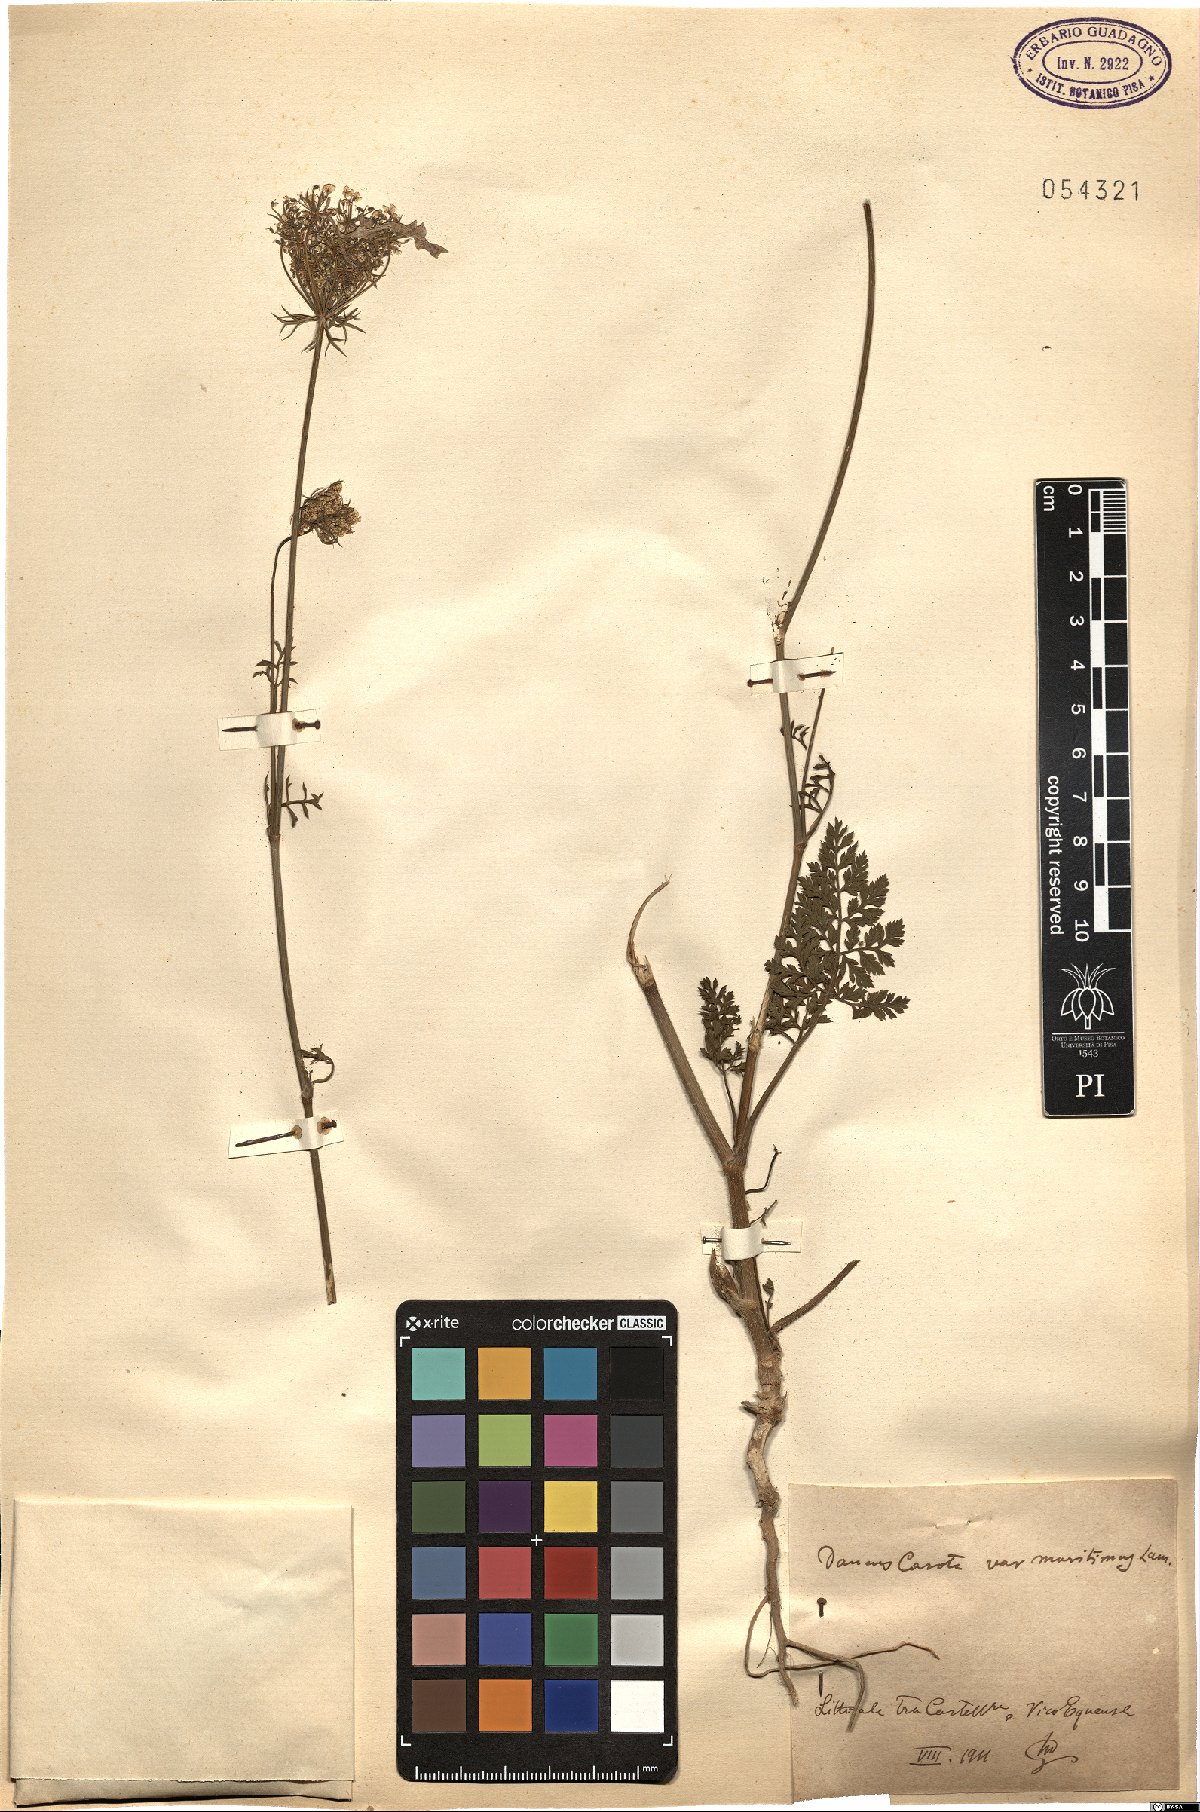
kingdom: Plantae
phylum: Tracheophyta
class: Magnoliopsida
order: Apiales
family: Apiaceae
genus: Daucus
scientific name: Daucus carota
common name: Wild carrot
